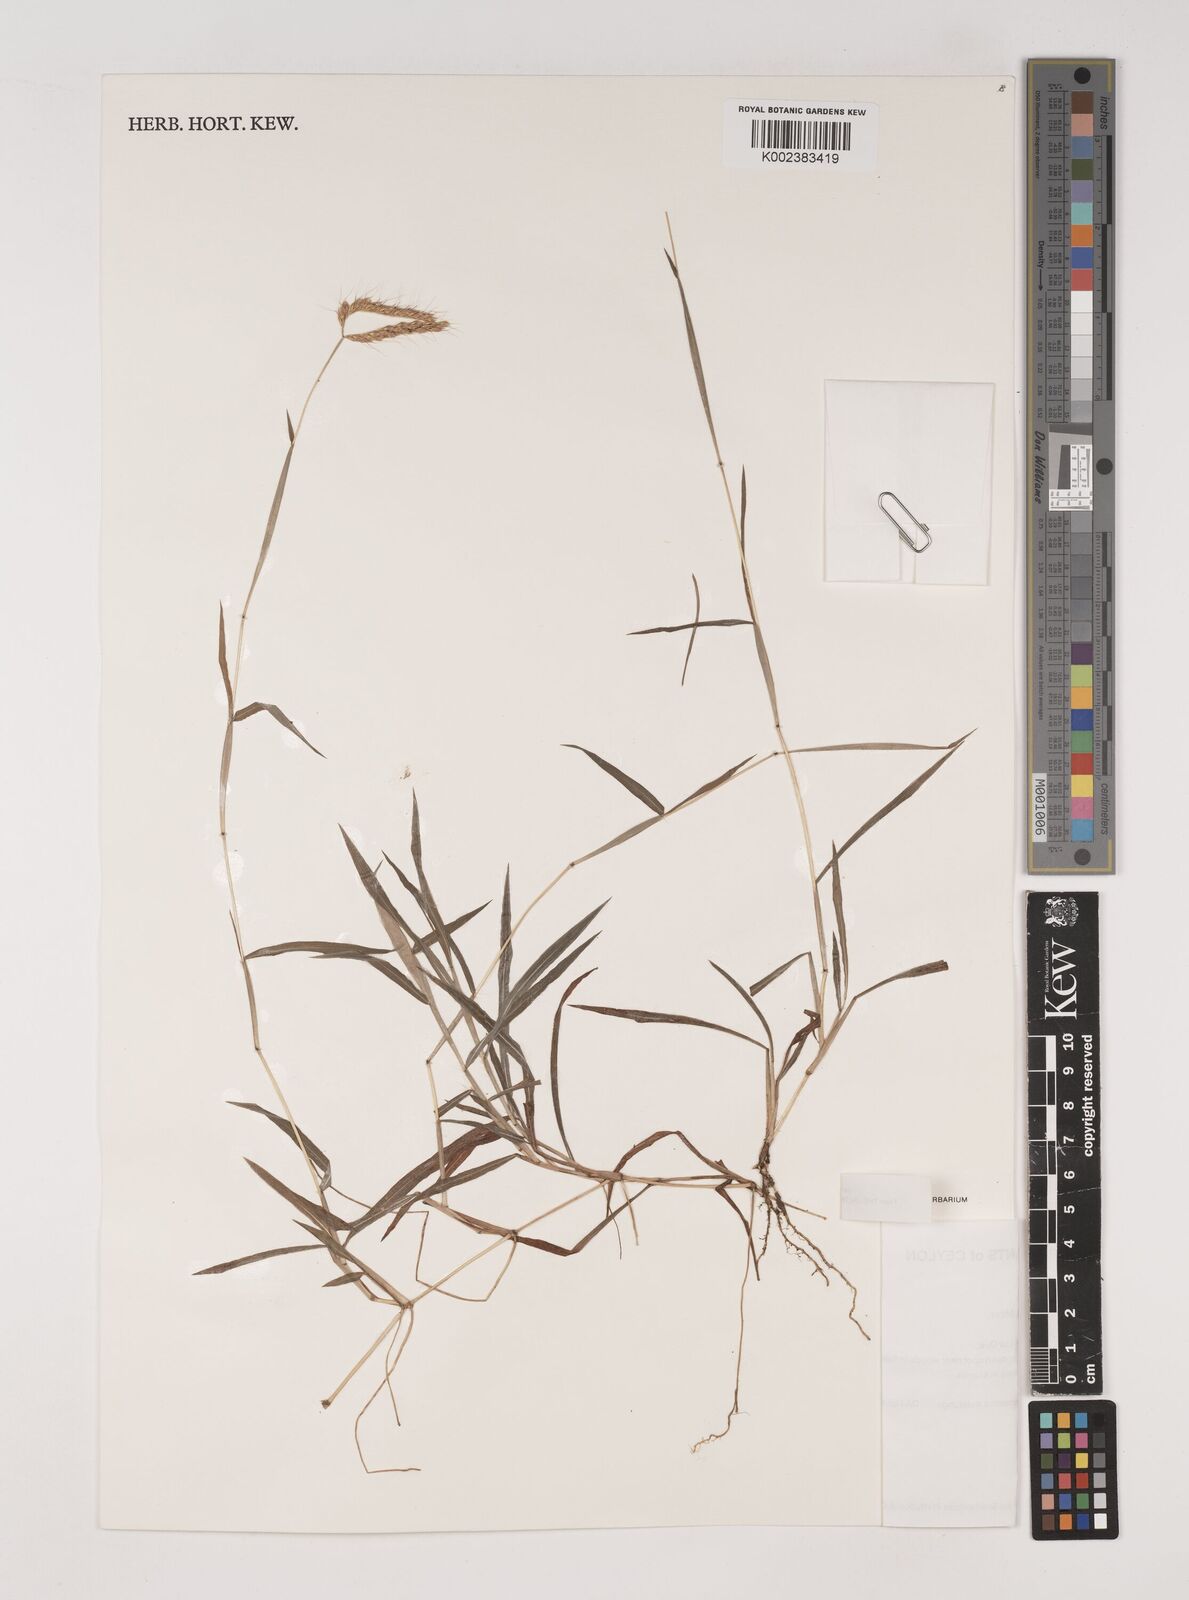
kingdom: Plantae
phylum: Tracheophyta
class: Liliopsida
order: Poales
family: Poaceae
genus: Polytrias
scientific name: Polytrias indica
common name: Indian murainagrass
